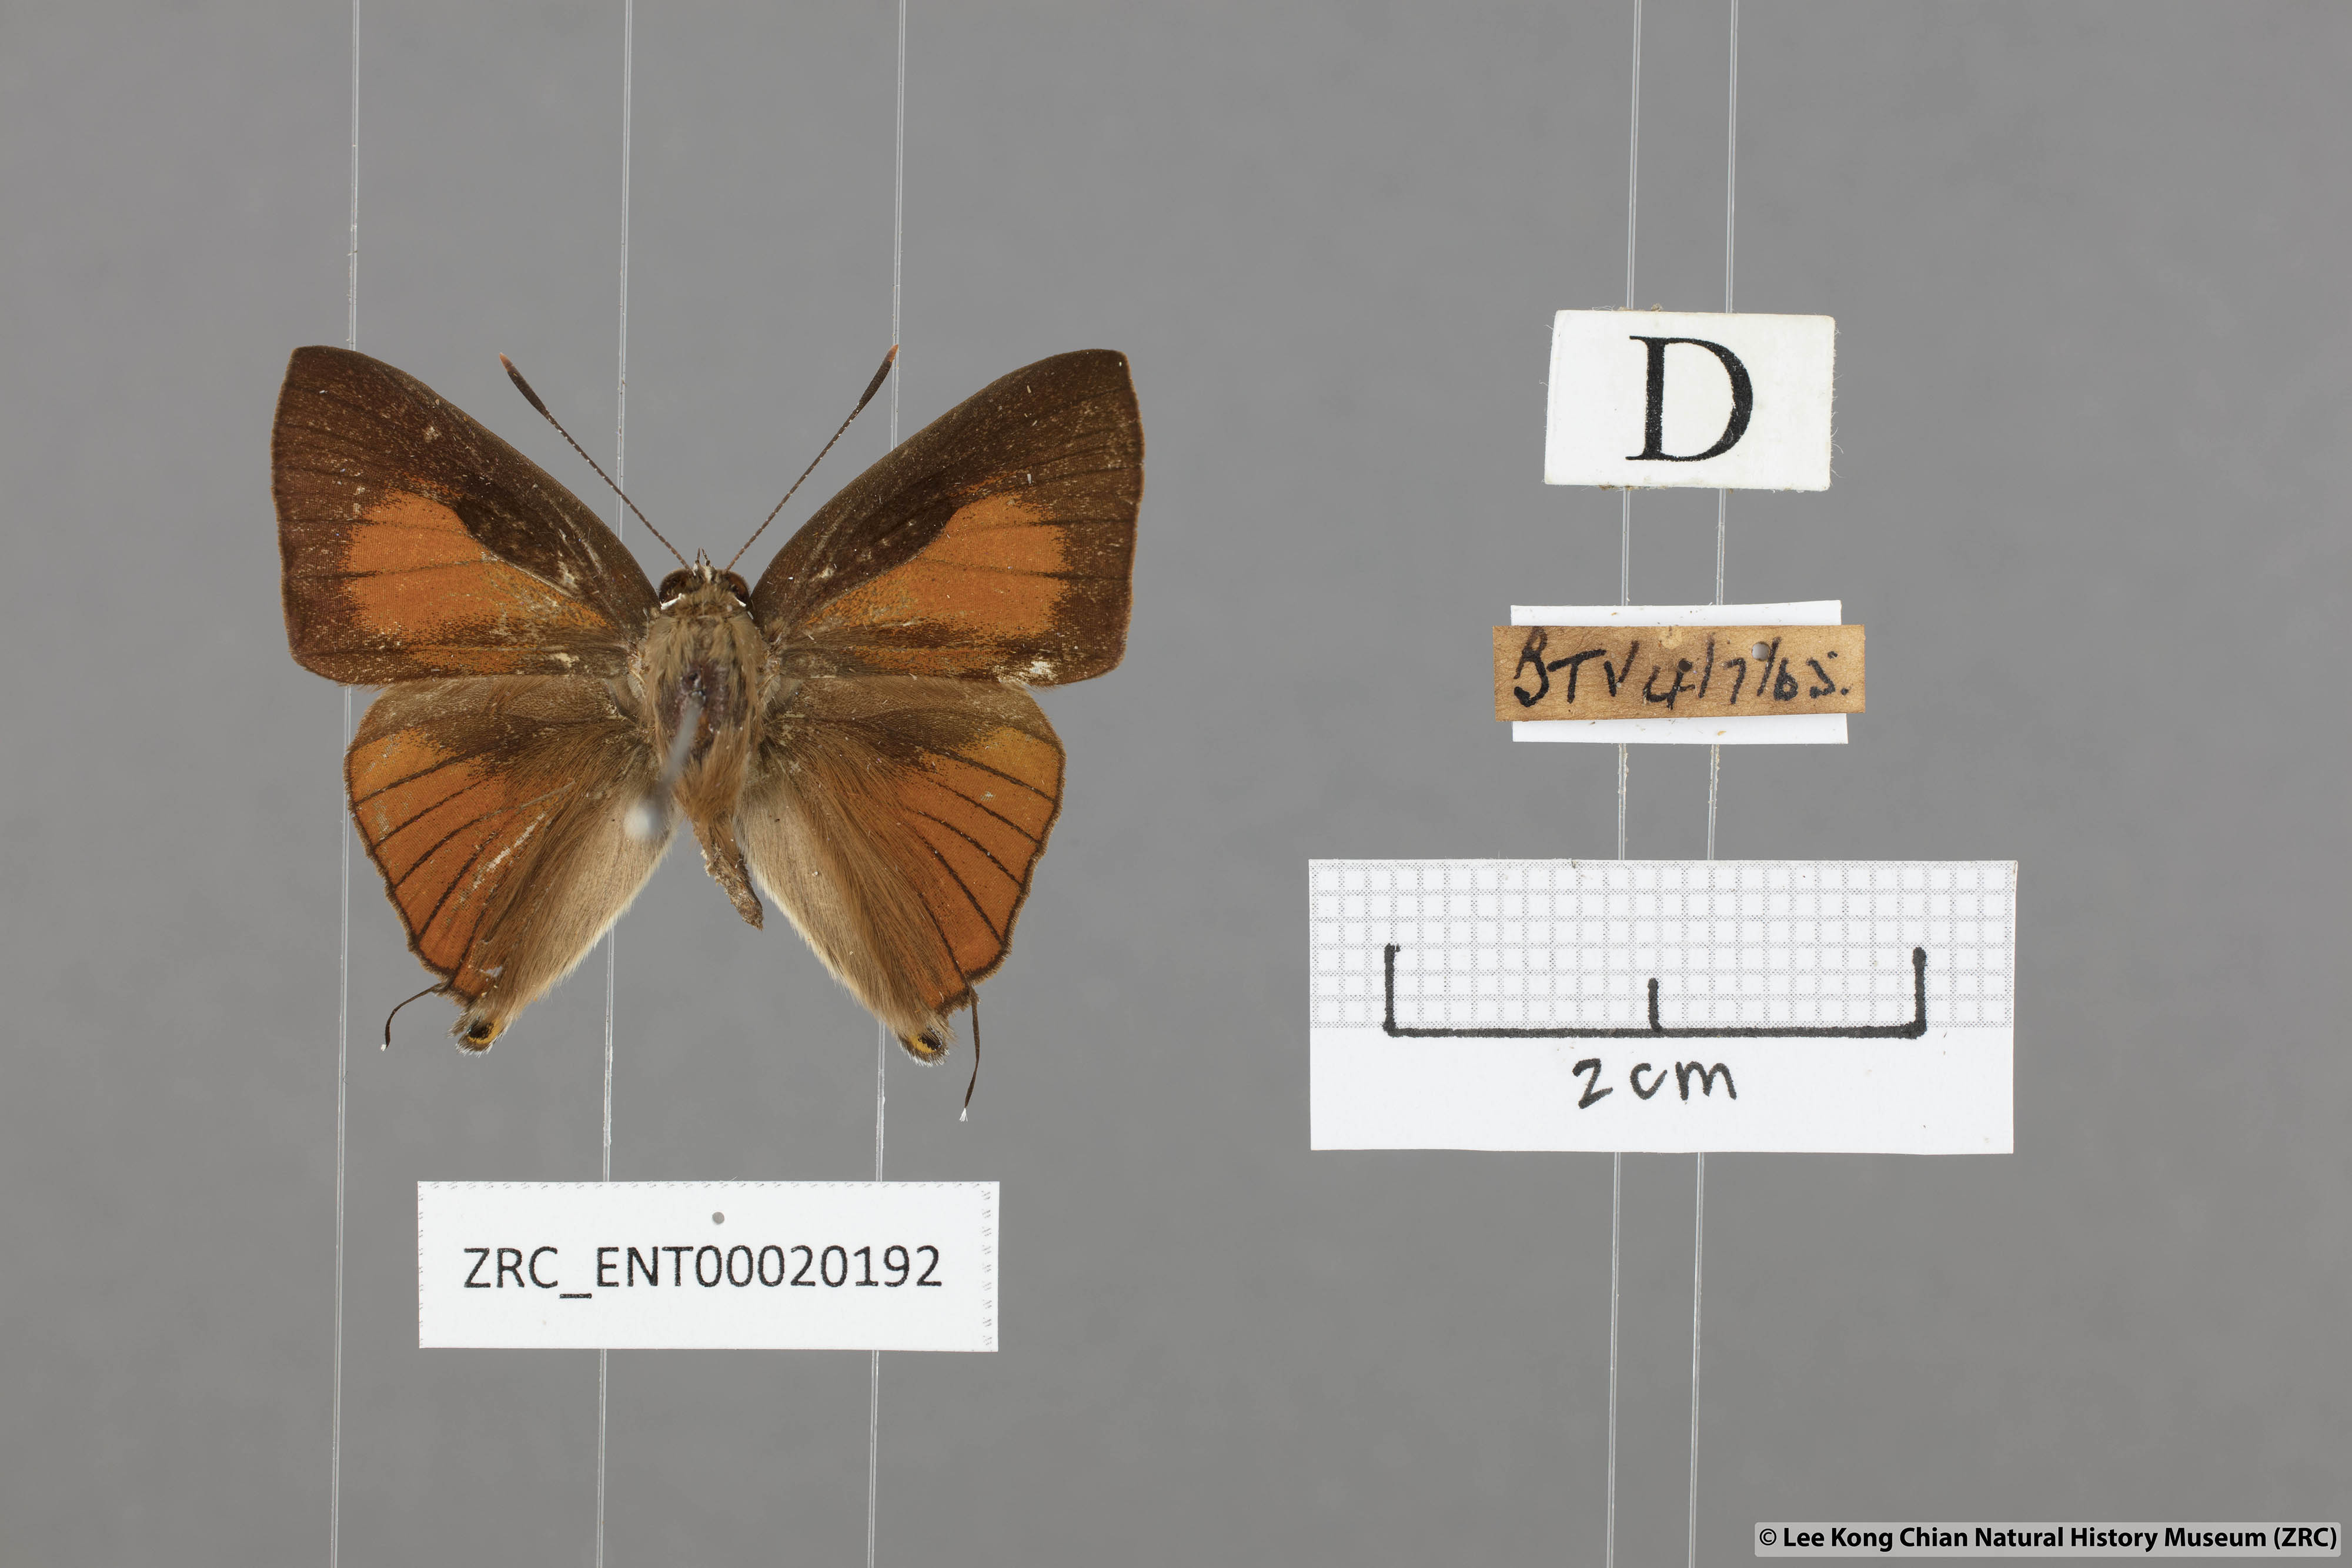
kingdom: Animalia
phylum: Arthropoda
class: Insecta
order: Lepidoptera
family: Lycaenidae
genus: Deudorix
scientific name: Deudorix epijarbas
